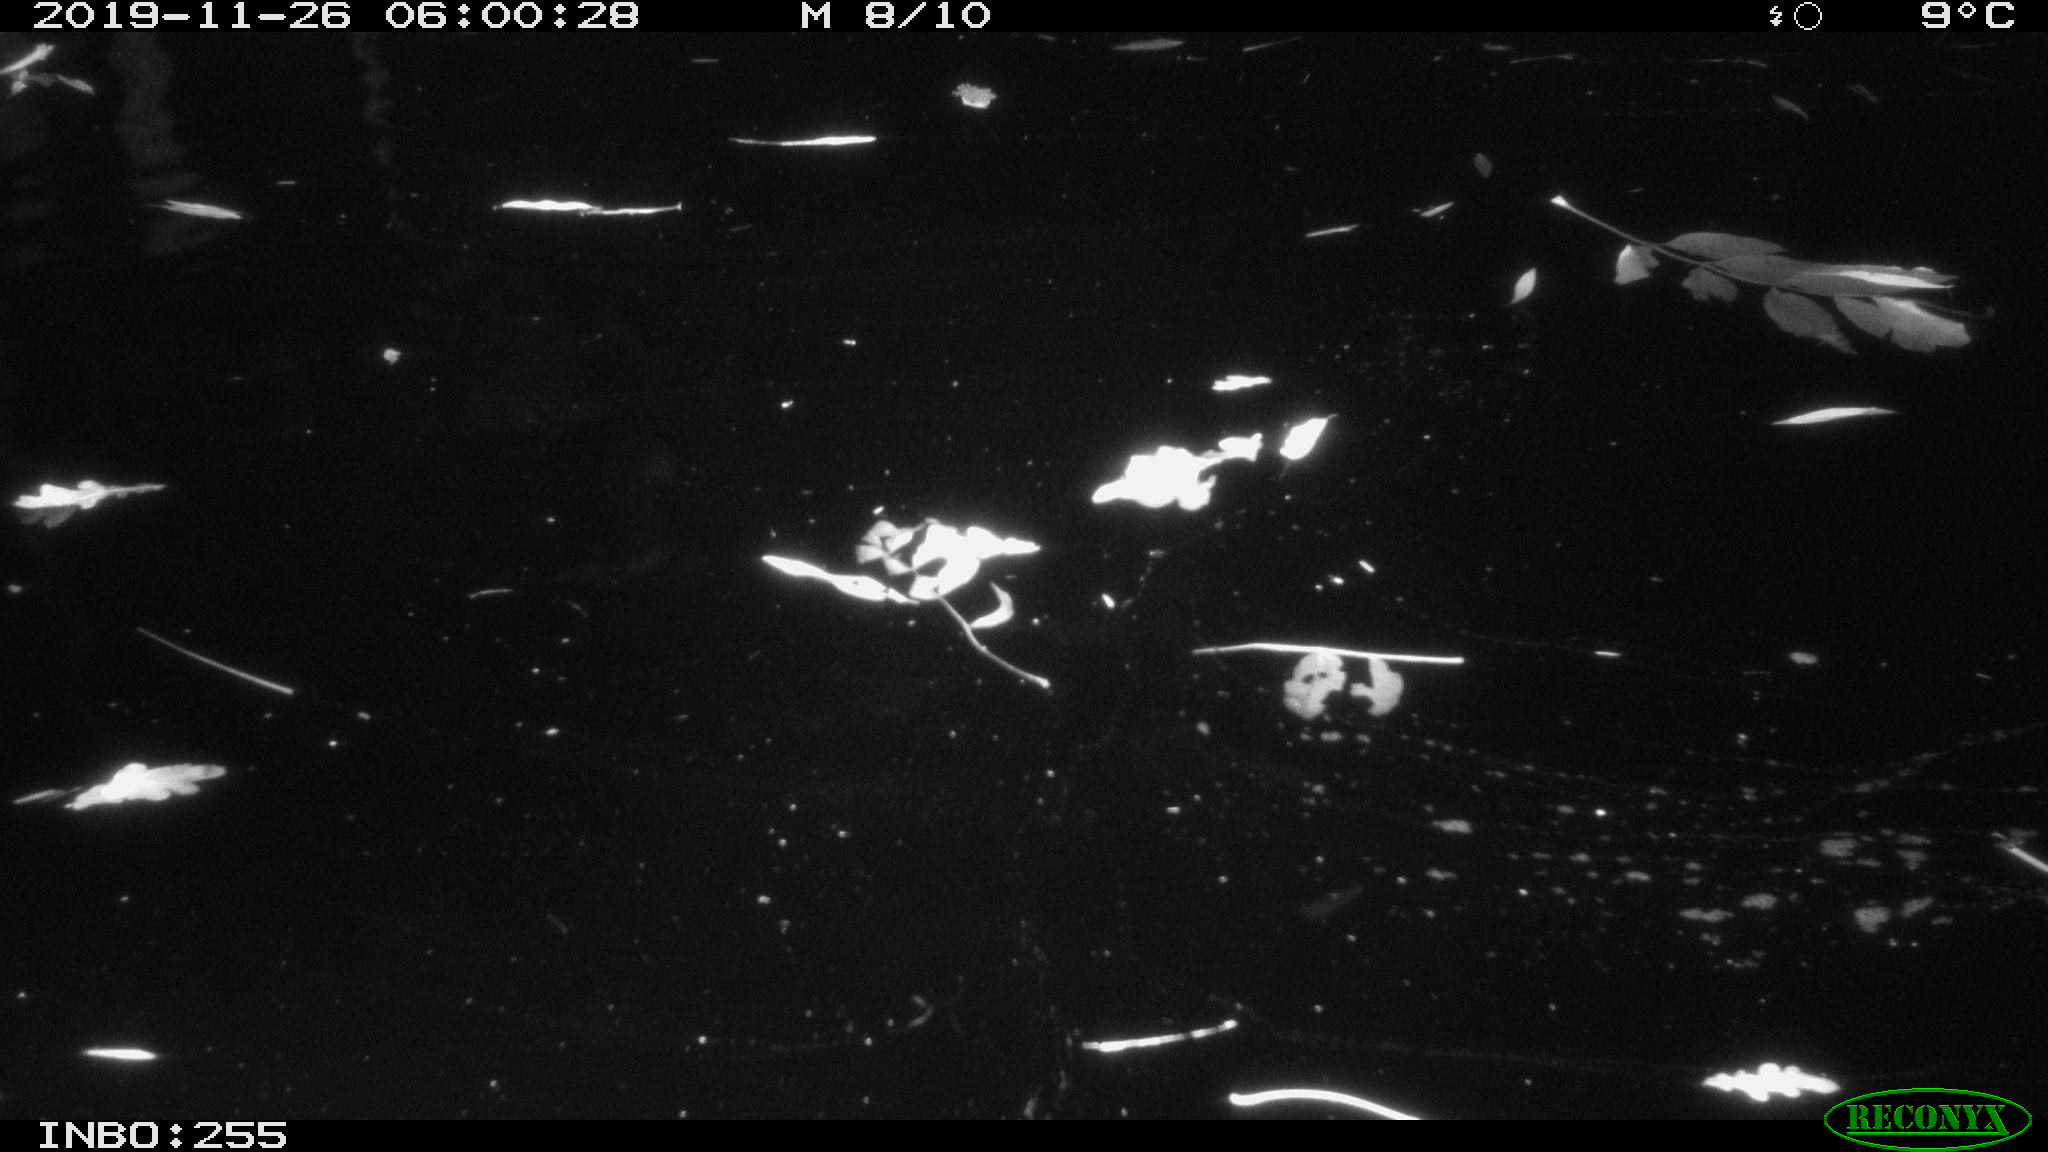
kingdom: Animalia
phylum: Chordata
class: Aves
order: Anseriformes
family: Anatidae
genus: Anas
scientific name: Anas platyrhynchos
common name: Mallard
